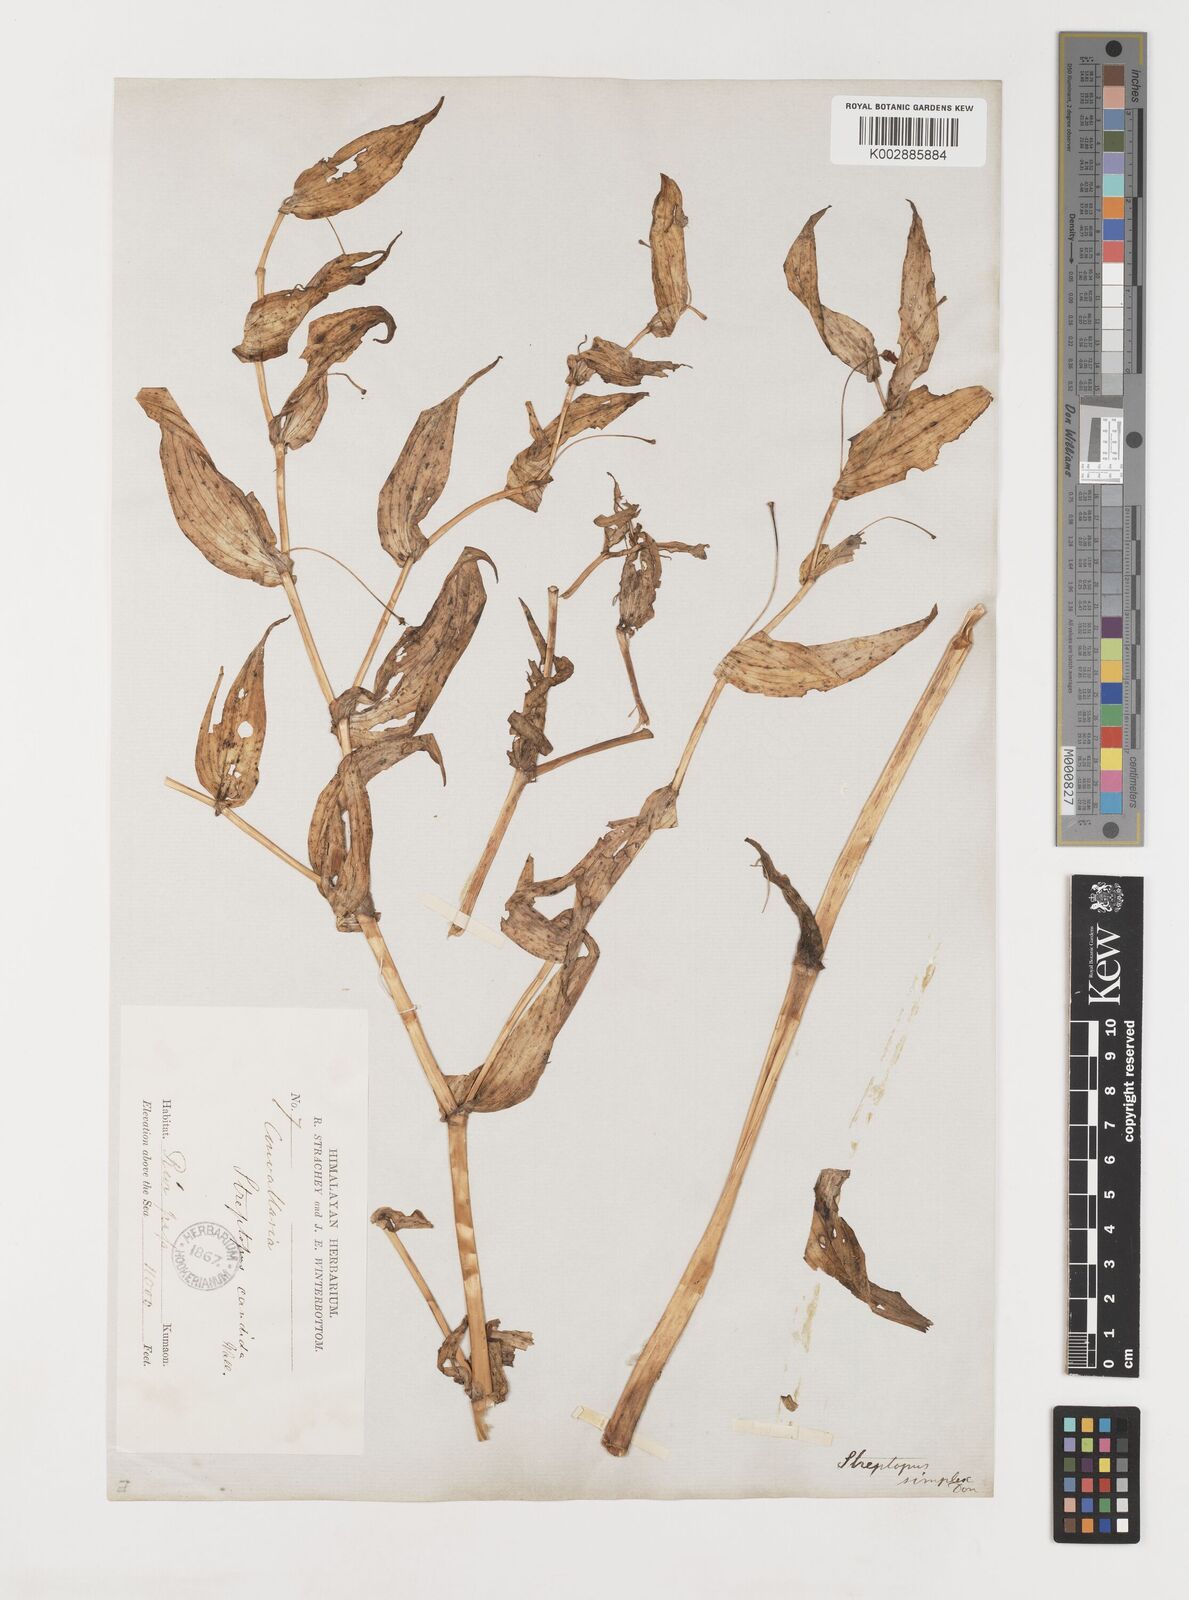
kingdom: Plantae
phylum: Tracheophyta
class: Liliopsida
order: Liliales
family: Liliaceae
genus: Streptopus
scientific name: Streptopus simplex
